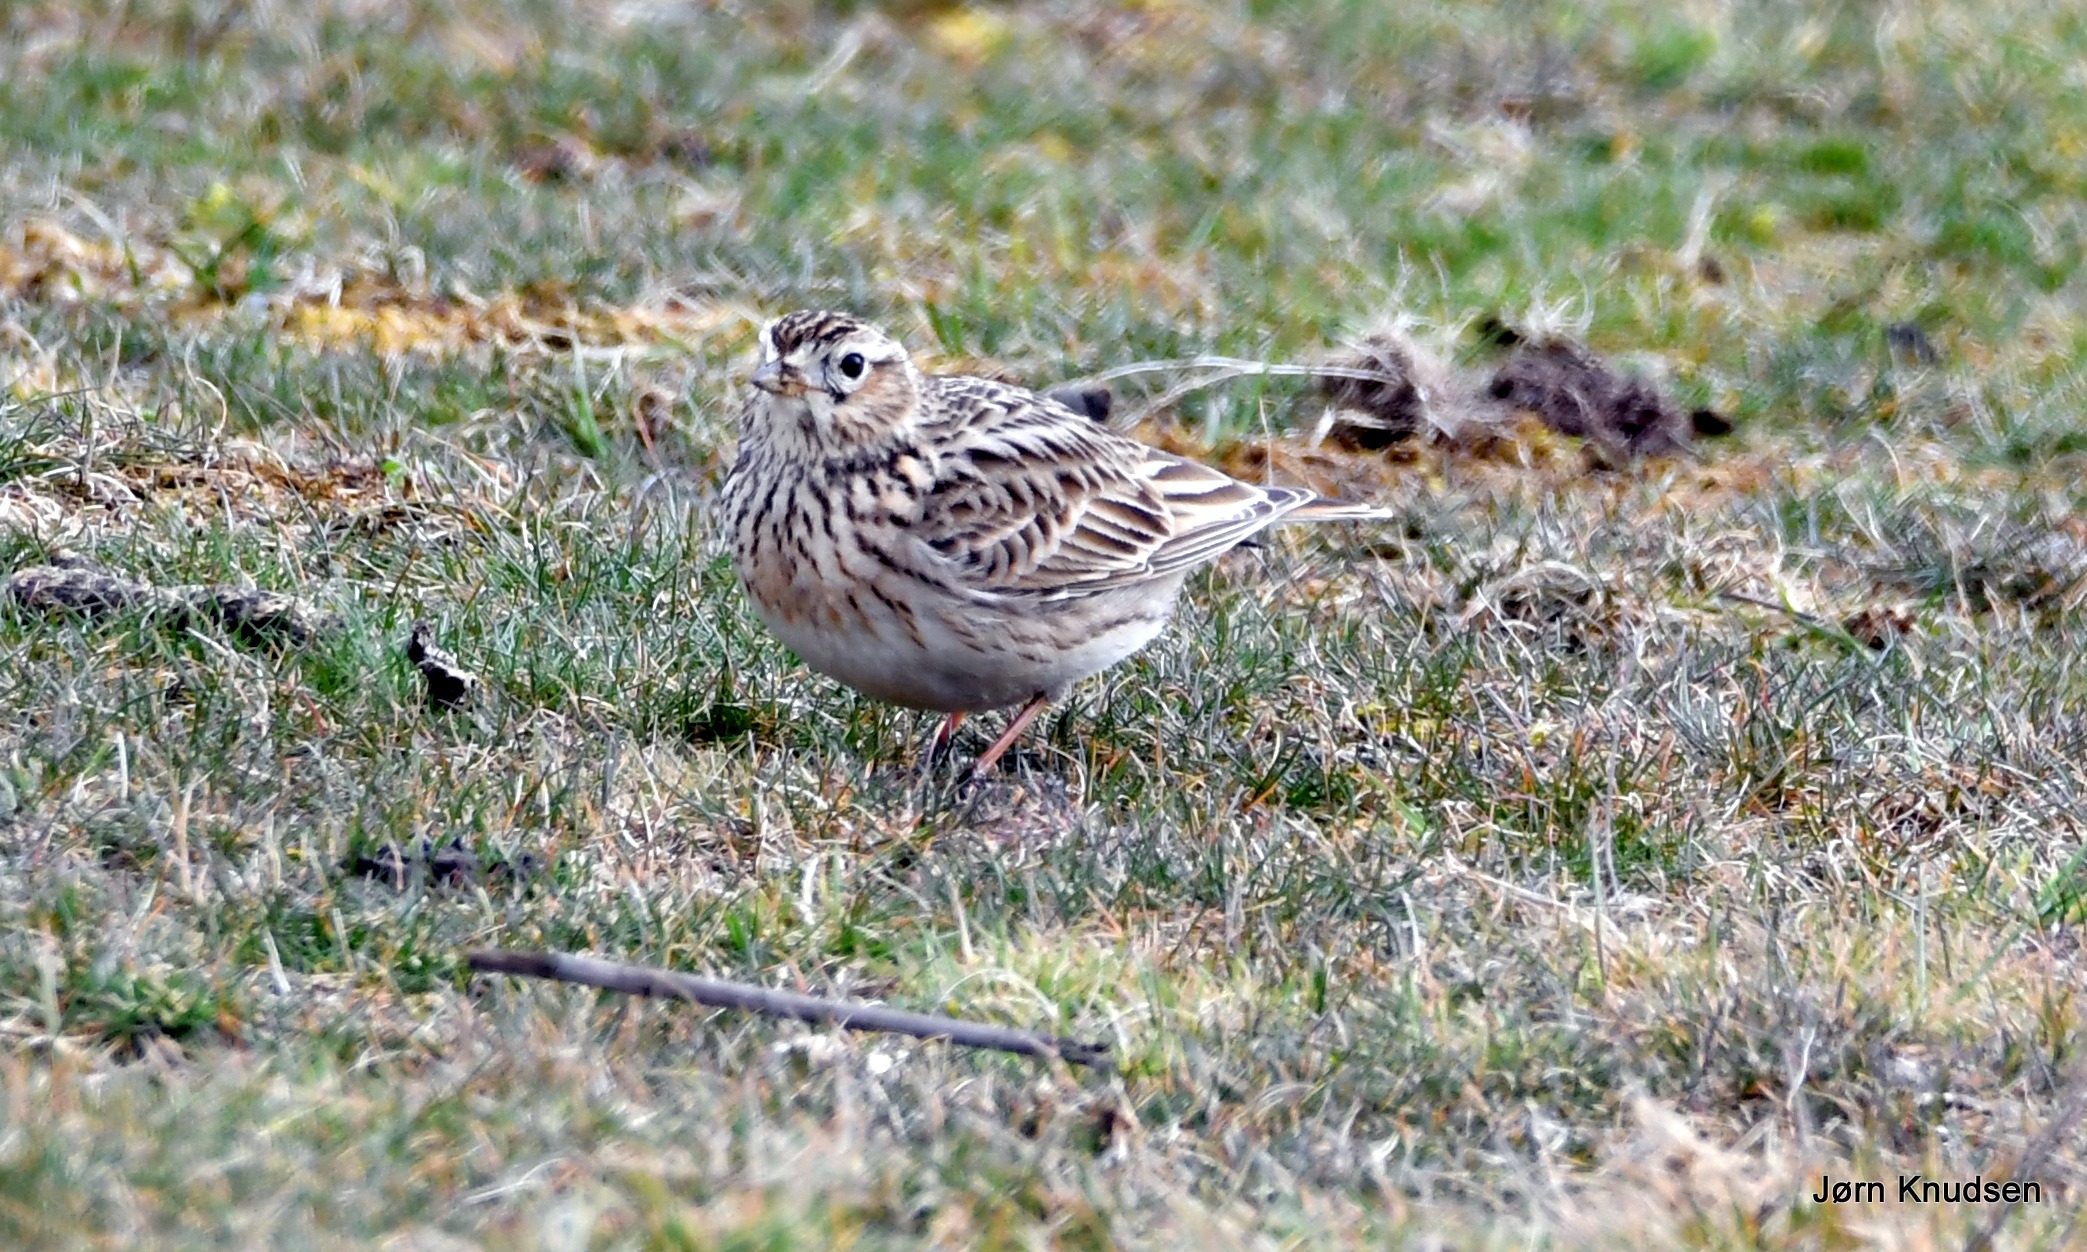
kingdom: Animalia
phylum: Chordata
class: Aves
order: Passeriformes
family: Alaudidae
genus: Alauda
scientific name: Alauda arvensis
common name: Sanglærke
